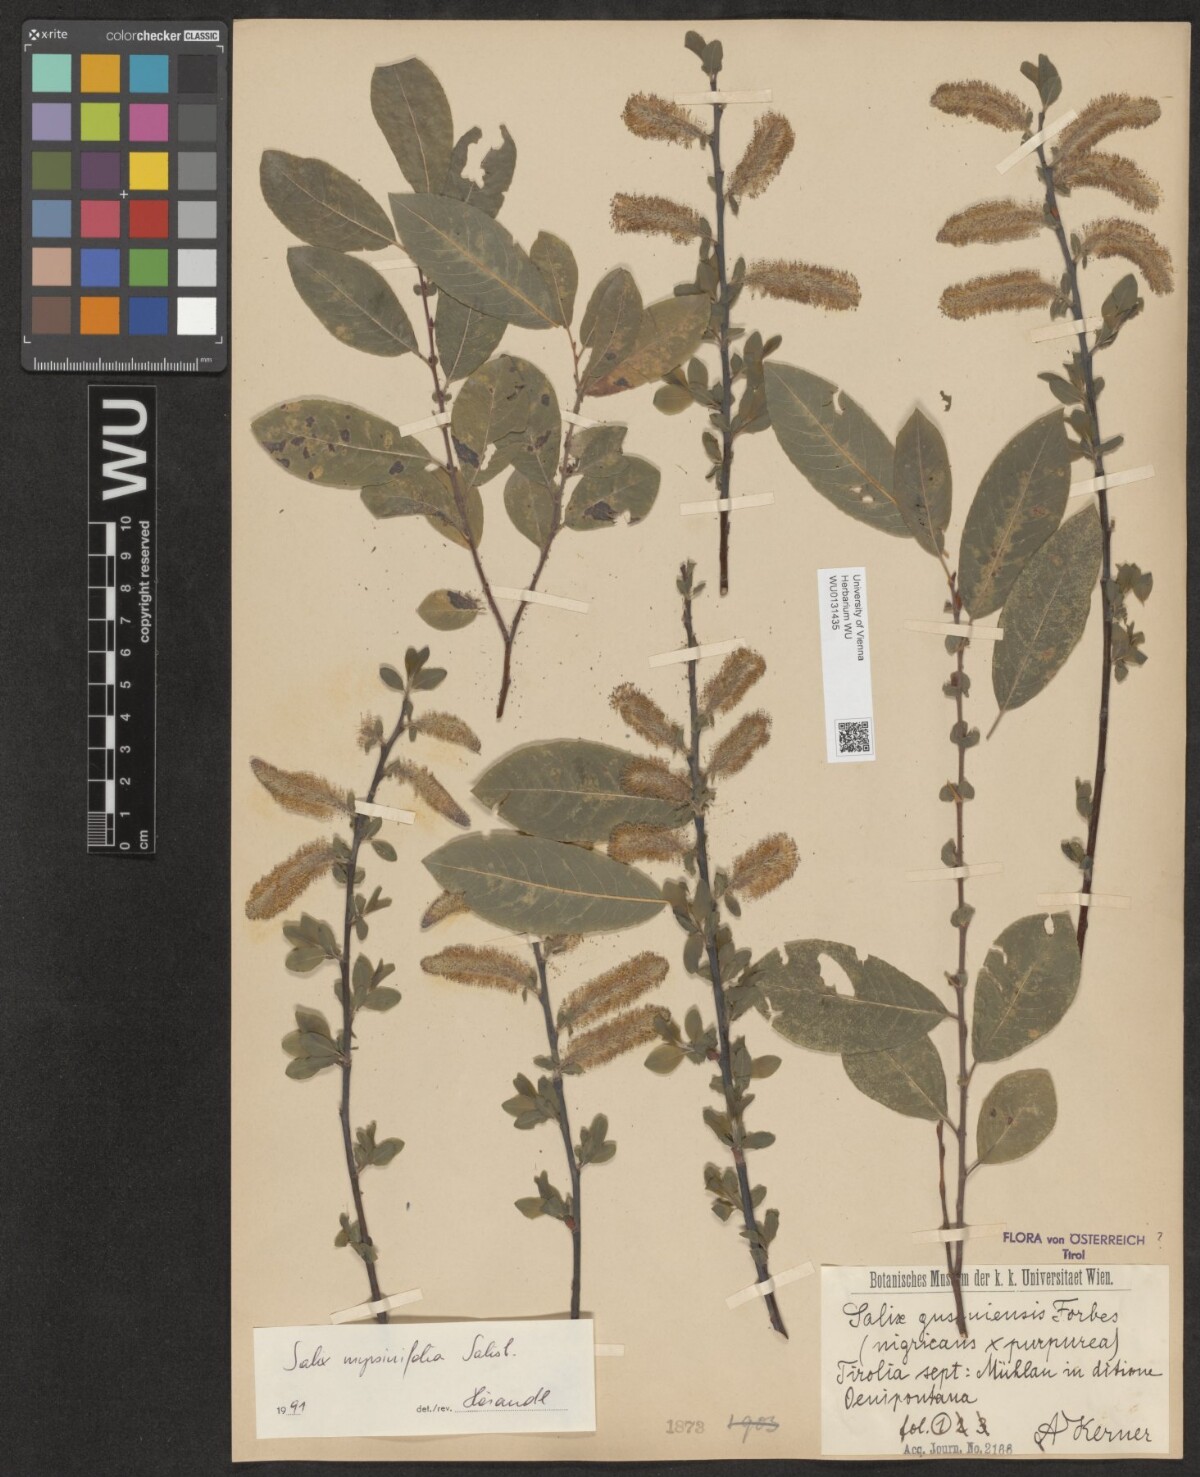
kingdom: Plantae
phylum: Tracheophyta
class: Magnoliopsida
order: Malpighiales
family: Salicaceae
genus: Salix
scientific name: Salix myrsinifolia
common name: Dark-leaved willow
